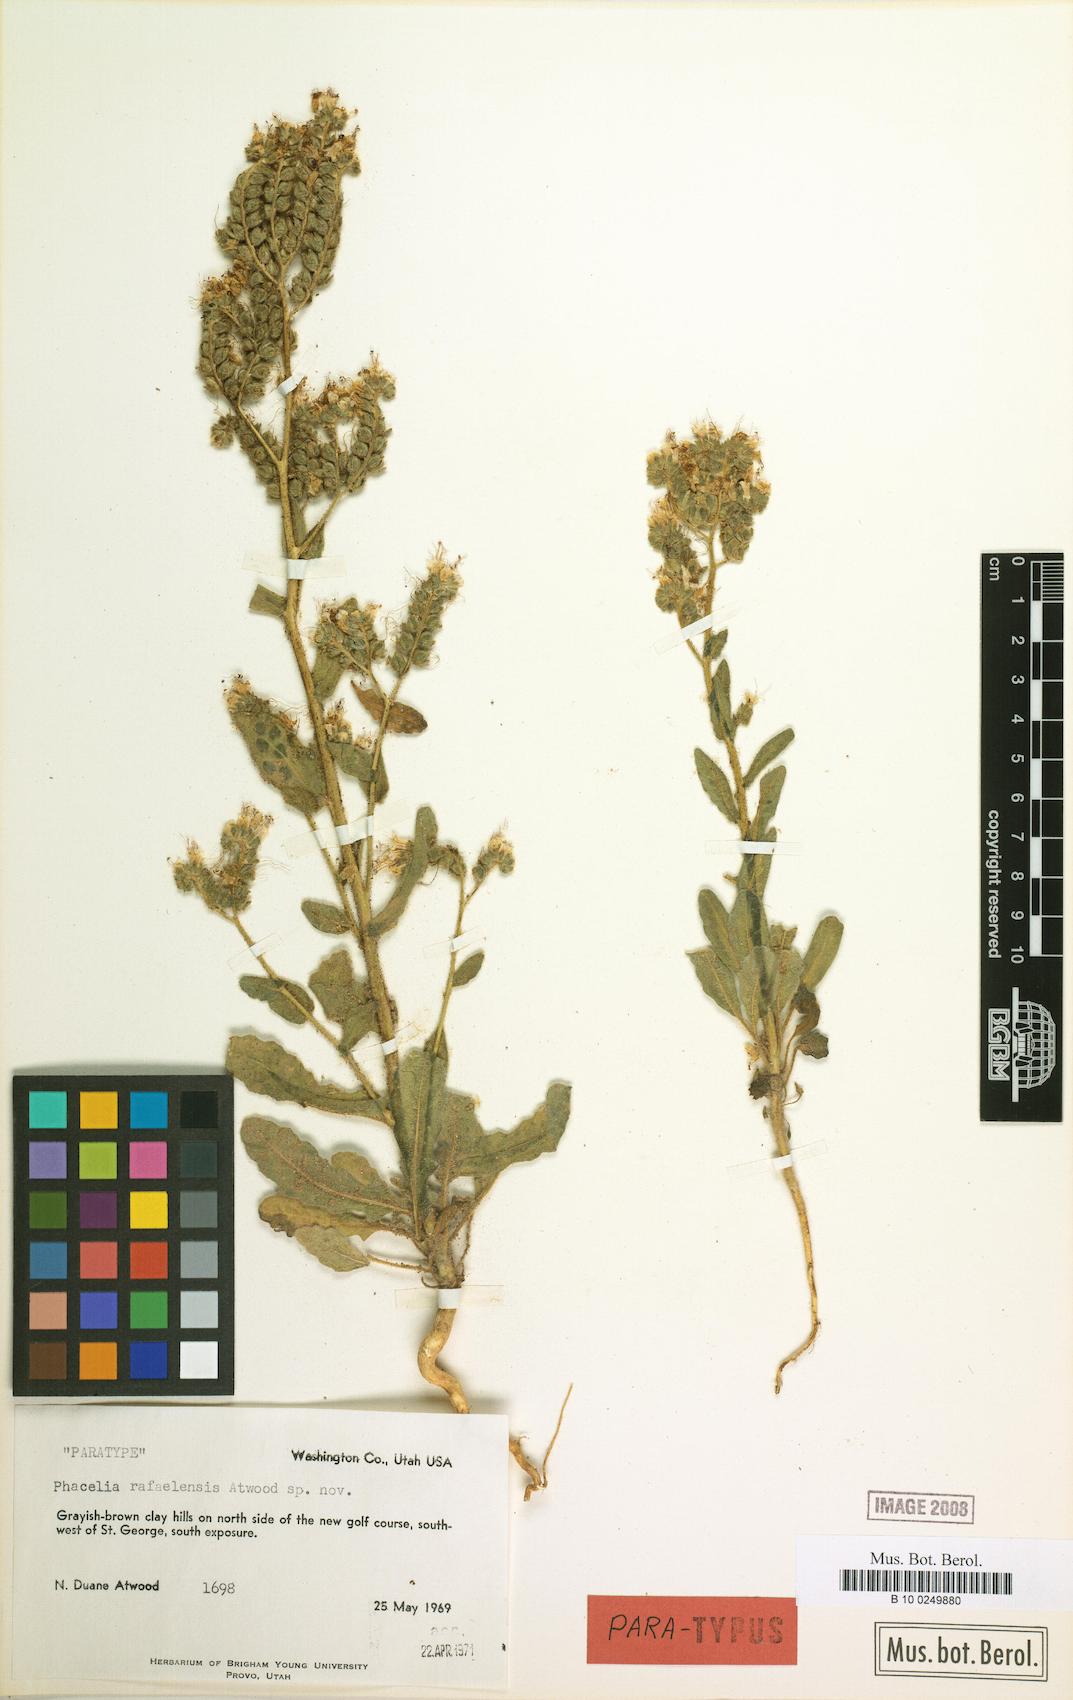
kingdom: Plantae
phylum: Tracheophyta
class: Magnoliopsida
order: Boraginales
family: Hydrophyllaceae
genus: Phacelia
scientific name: Phacelia rafaelensis
